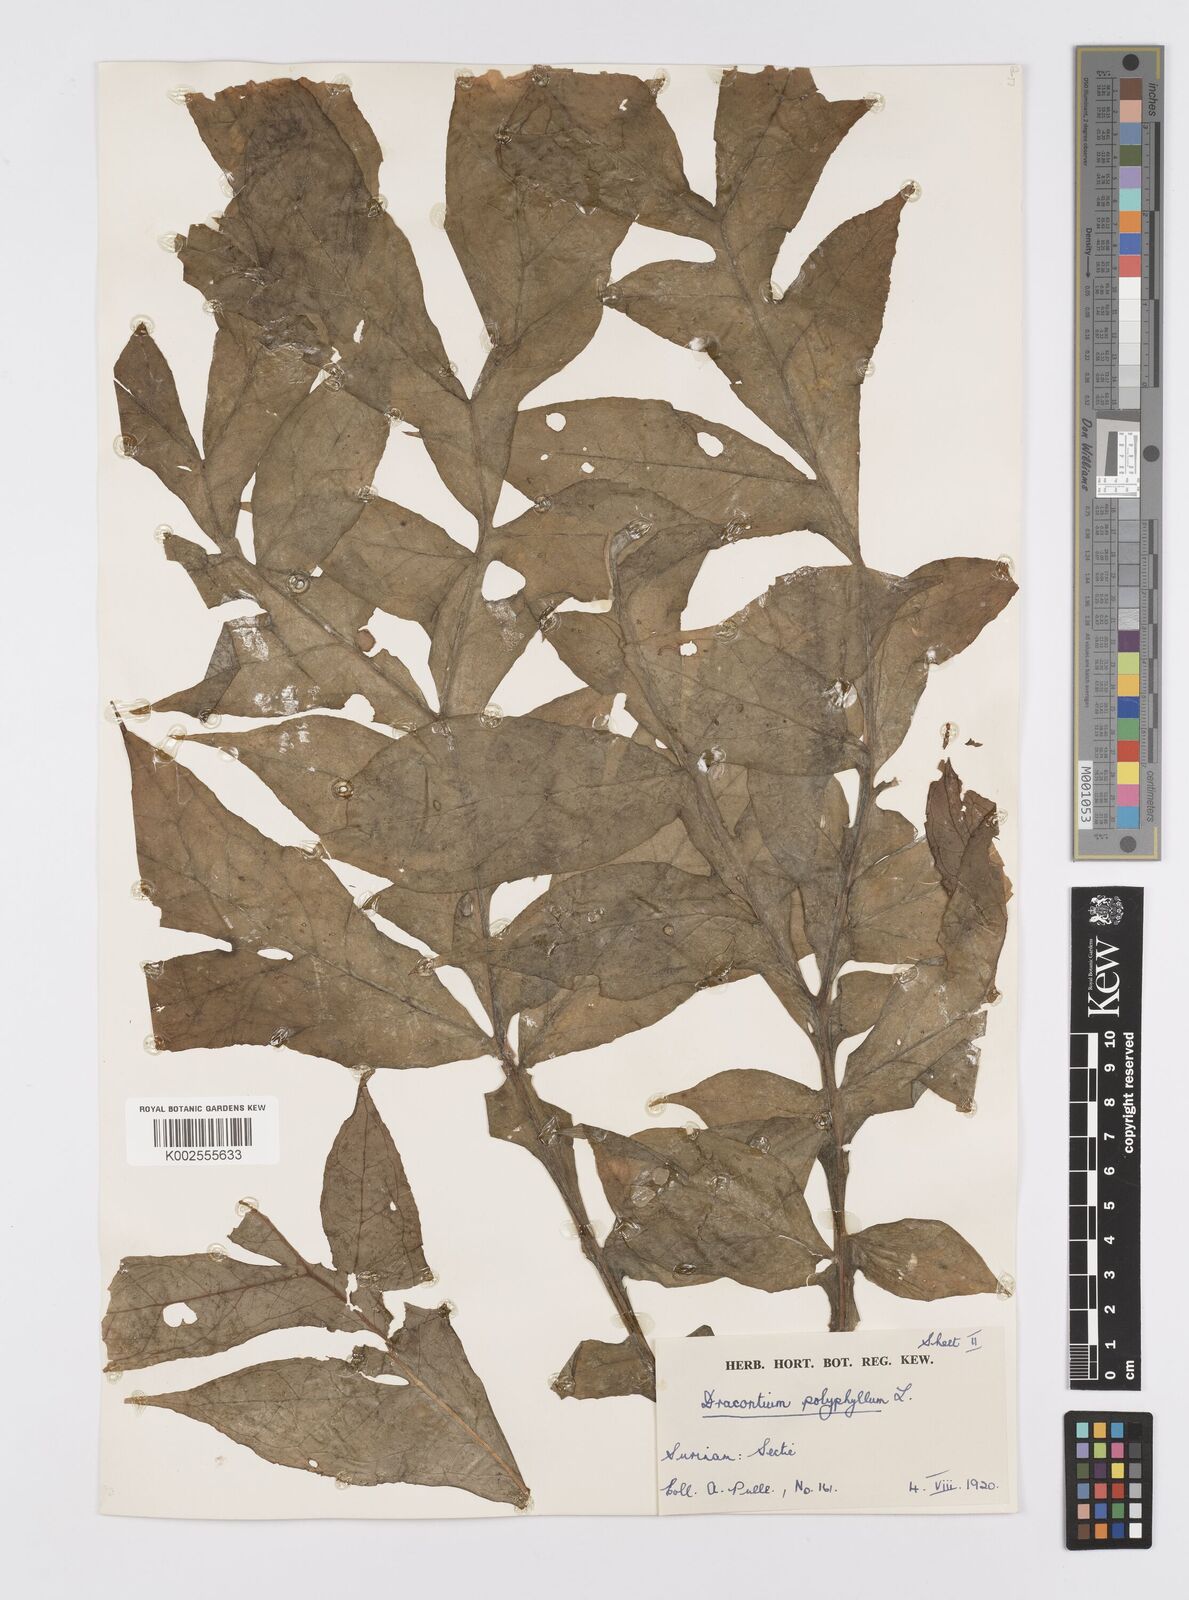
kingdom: Plantae
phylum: Tracheophyta
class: Liliopsida
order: Alismatales
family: Araceae
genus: Dracontium
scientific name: Dracontium polyphyllum
